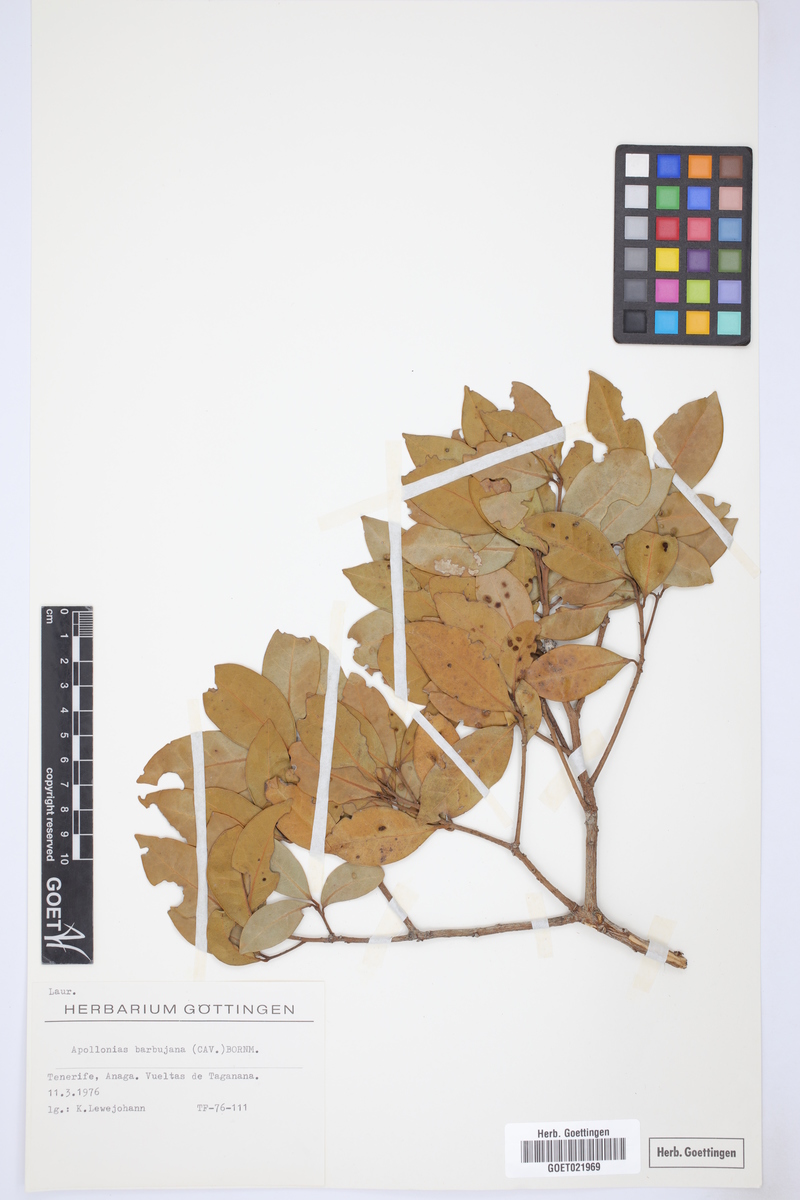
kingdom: Plantae
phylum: Tracheophyta
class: Magnoliopsida
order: Laurales
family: Lauraceae
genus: Apollonias
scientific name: Apollonias barbujana
